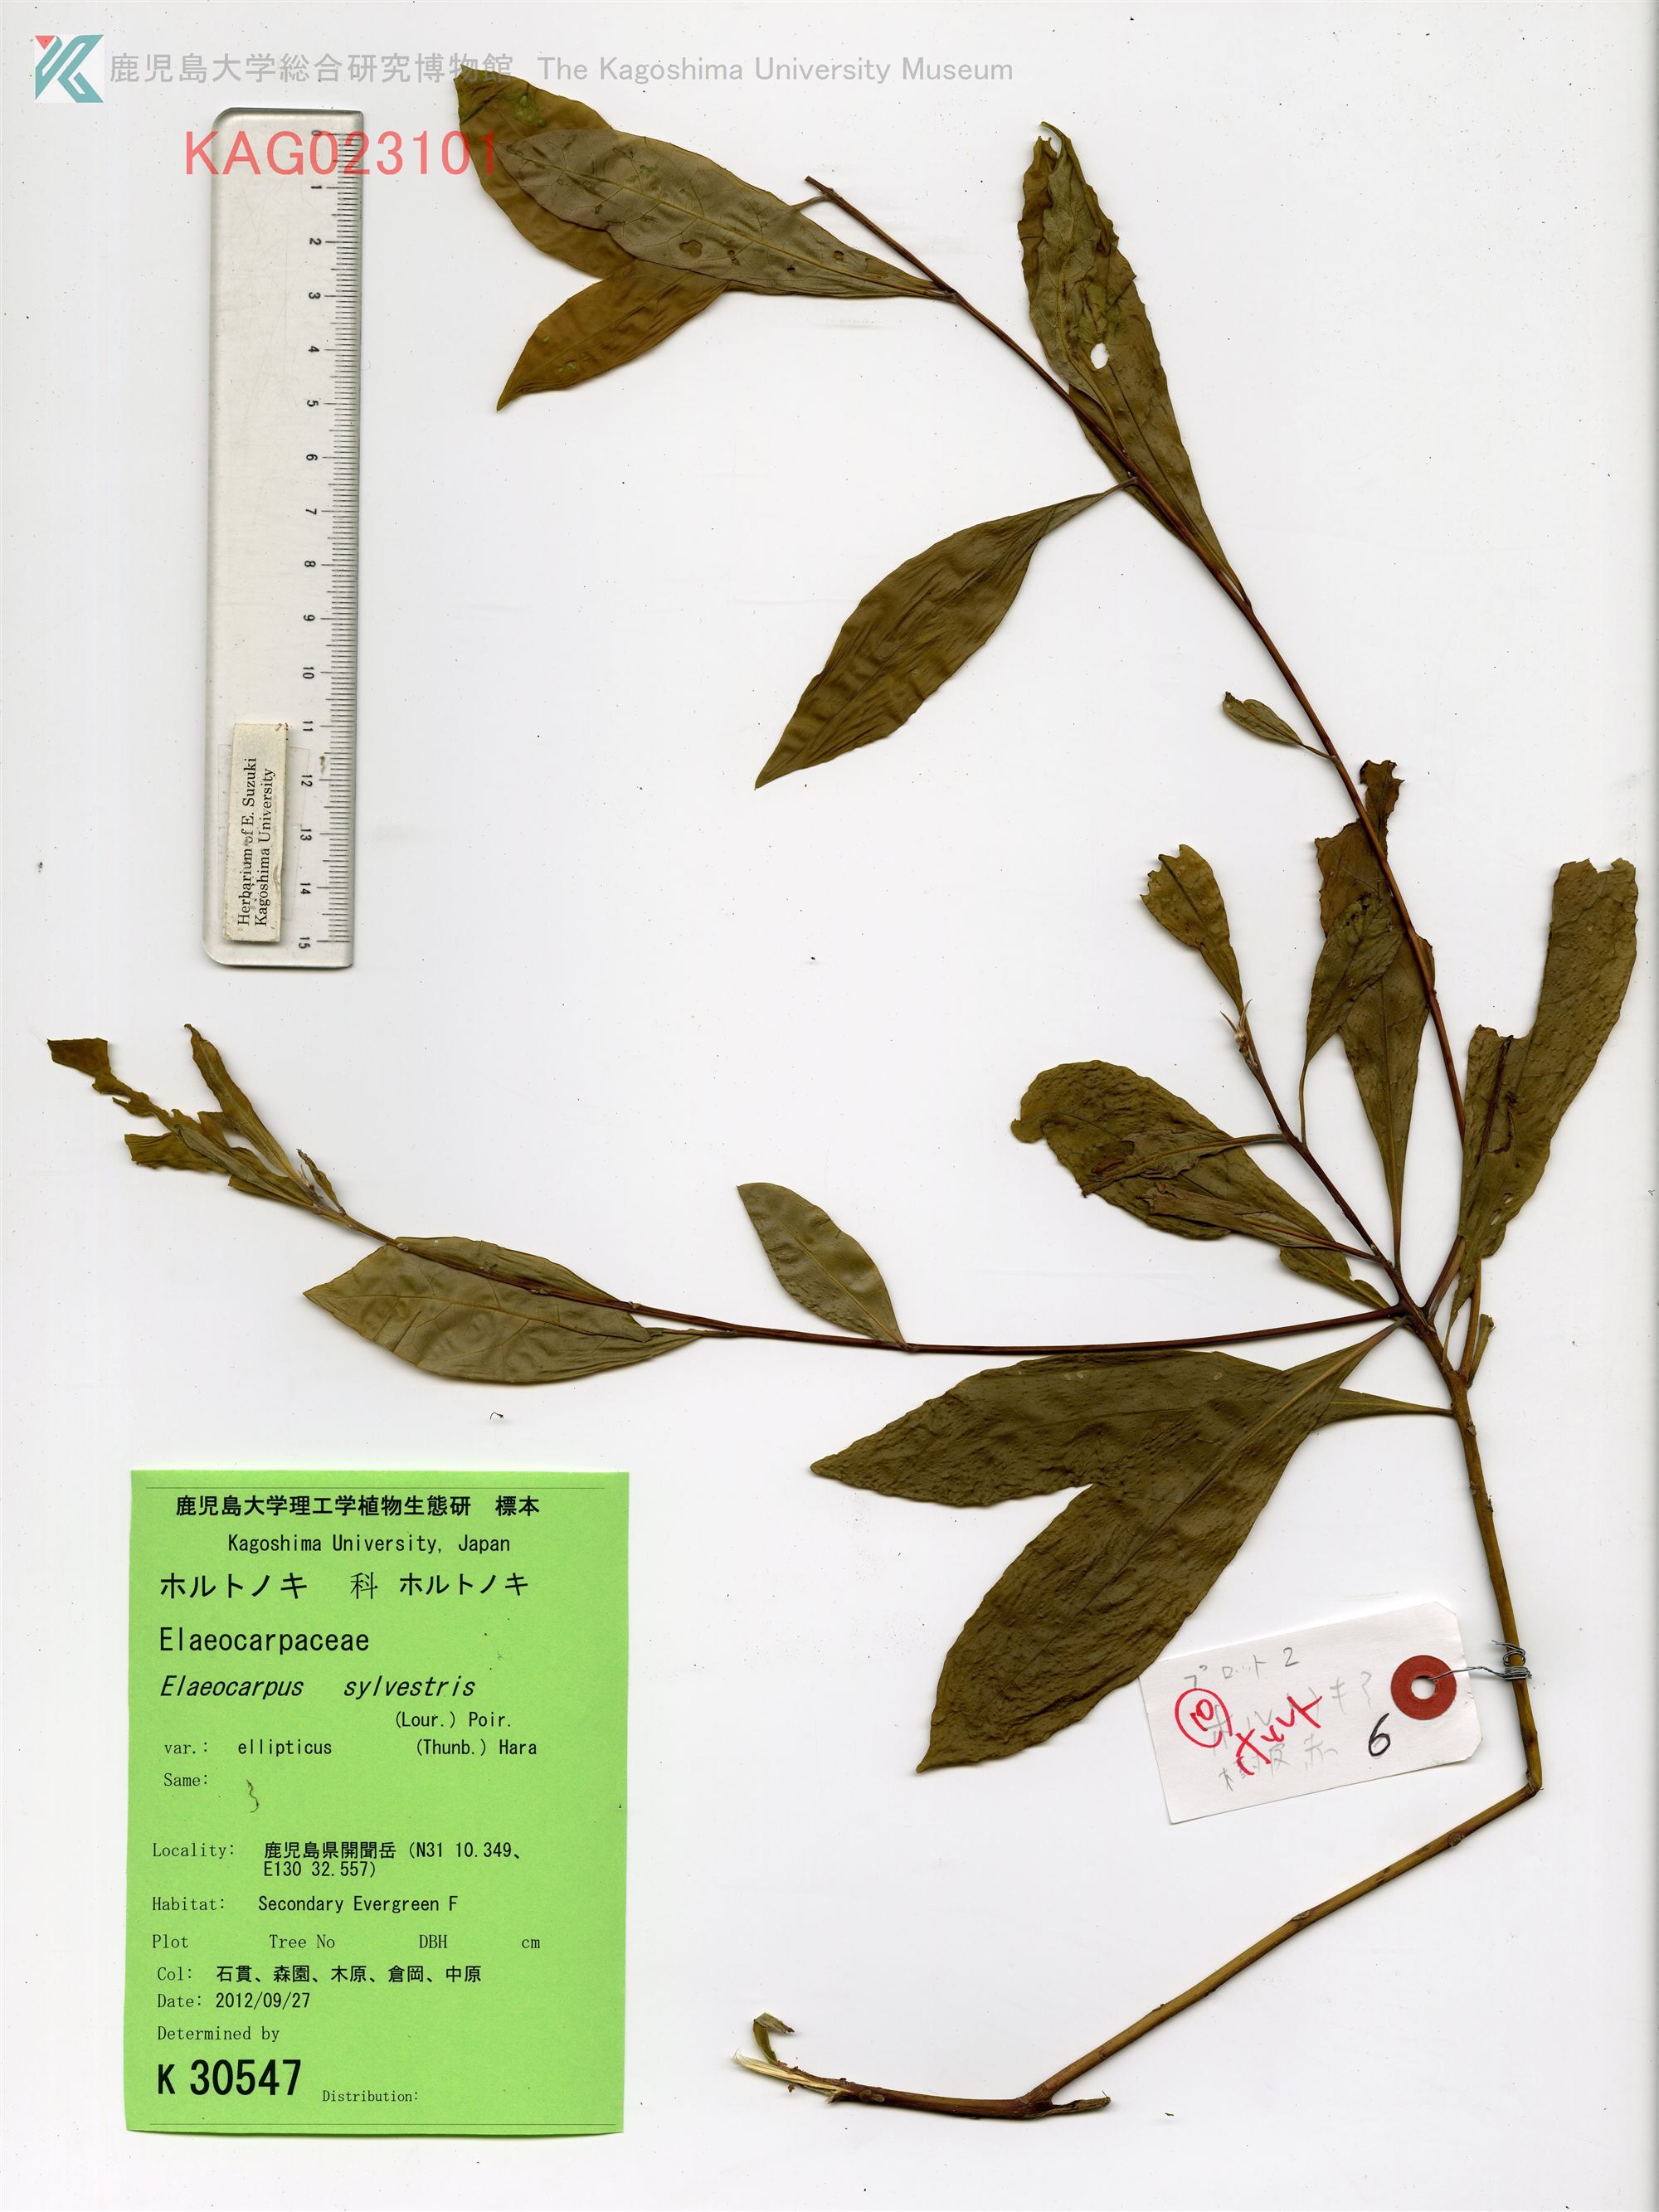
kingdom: Plantae
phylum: Tracheophyta
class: Magnoliopsida
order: Oxalidales
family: Elaeocarpaceae
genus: Elaeocarpus
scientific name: Elaeocarpus decipiens
